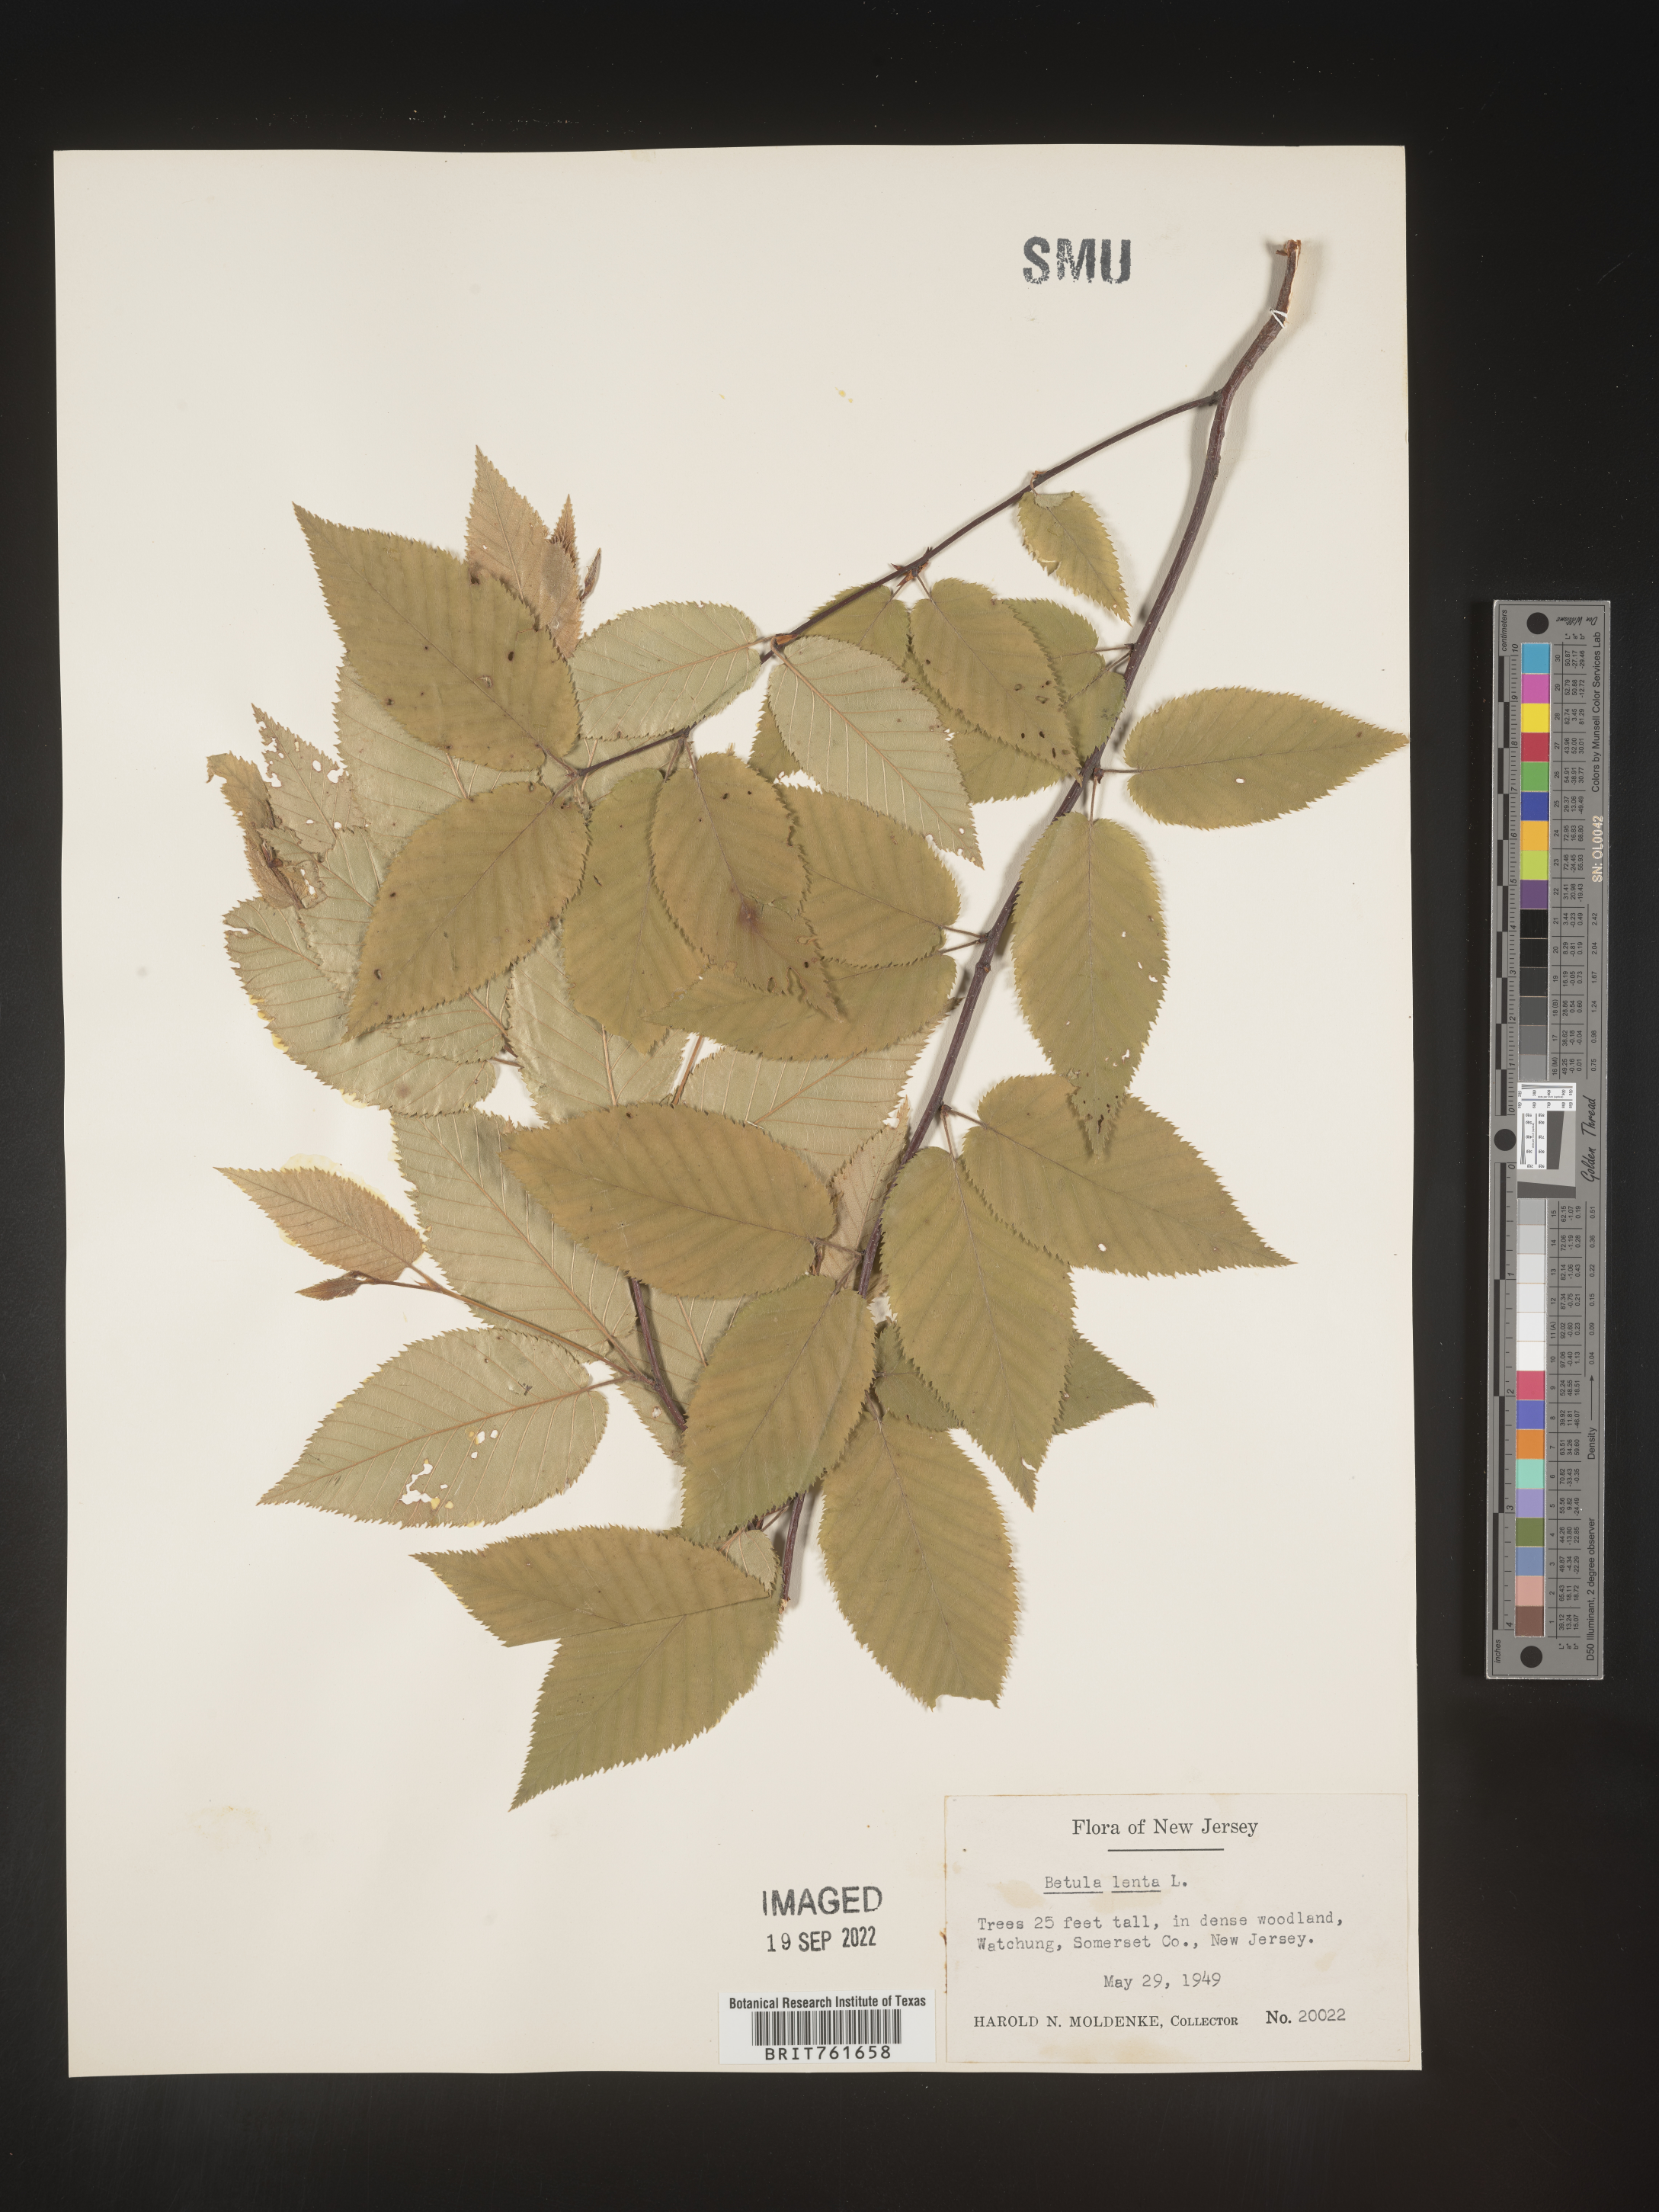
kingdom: Plantae
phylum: Tracheophyta
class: Magnoliopsida
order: Fagales
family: Betulaceae
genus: Betula
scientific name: Betula lenta
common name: Black birch
